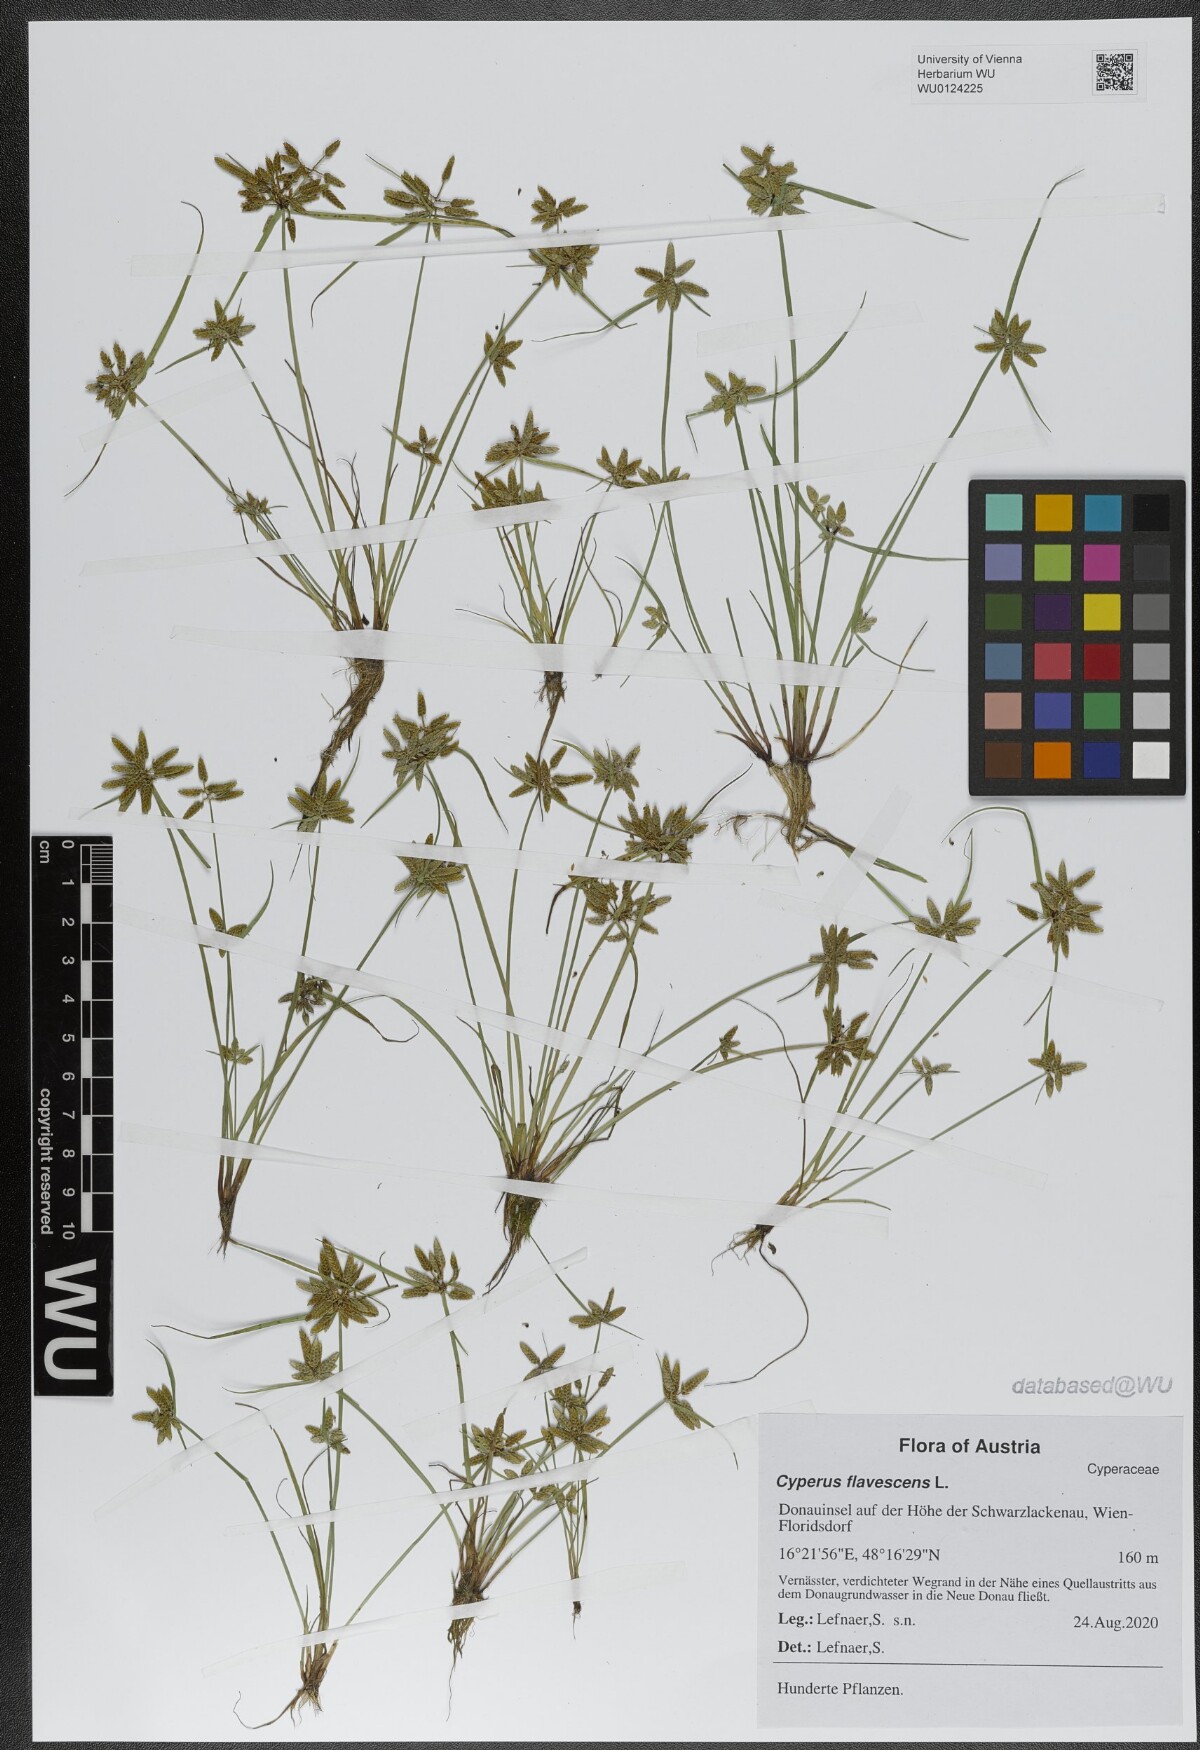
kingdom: Plantae
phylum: Tracheophyta
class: Liliopsida
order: Poales
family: Cyperaceae
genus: Cyperus
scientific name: Cyperus flavescens
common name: Yellow galingale
